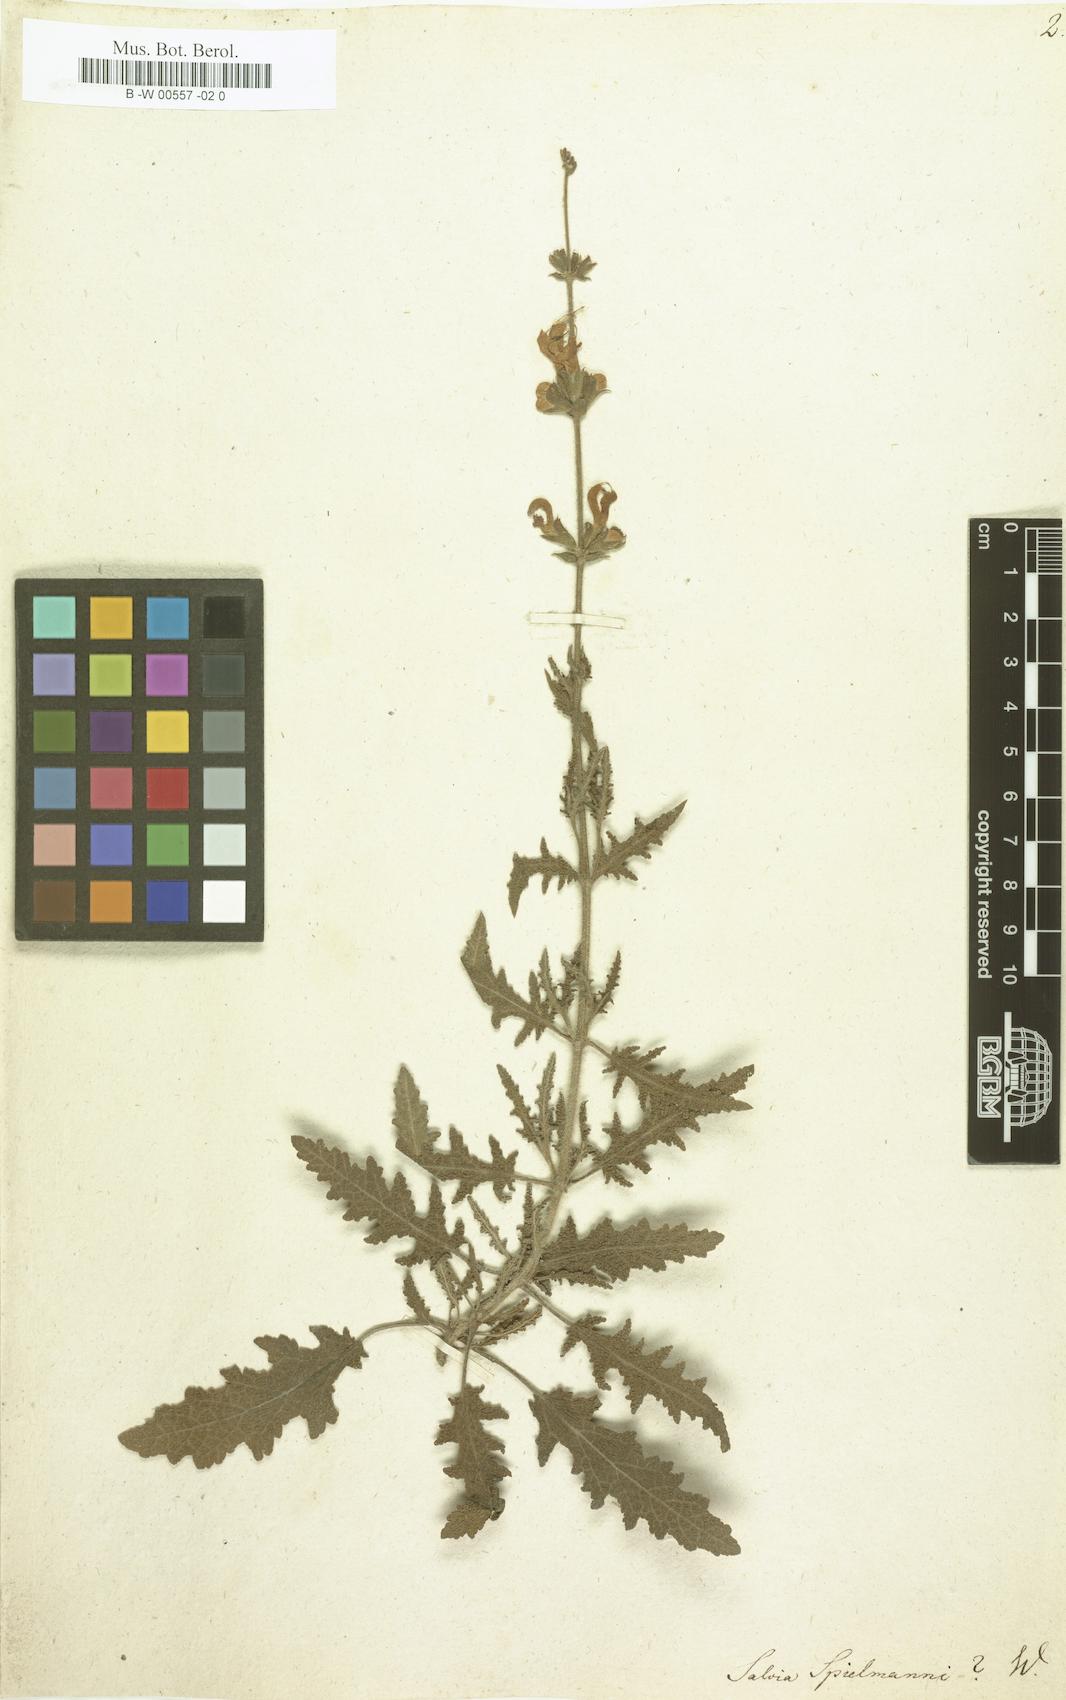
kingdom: Plantae
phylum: Tracheophyta
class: Magnoliopsida
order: Lamiales
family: Lamiaceae
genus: Salvia
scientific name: Salvia
